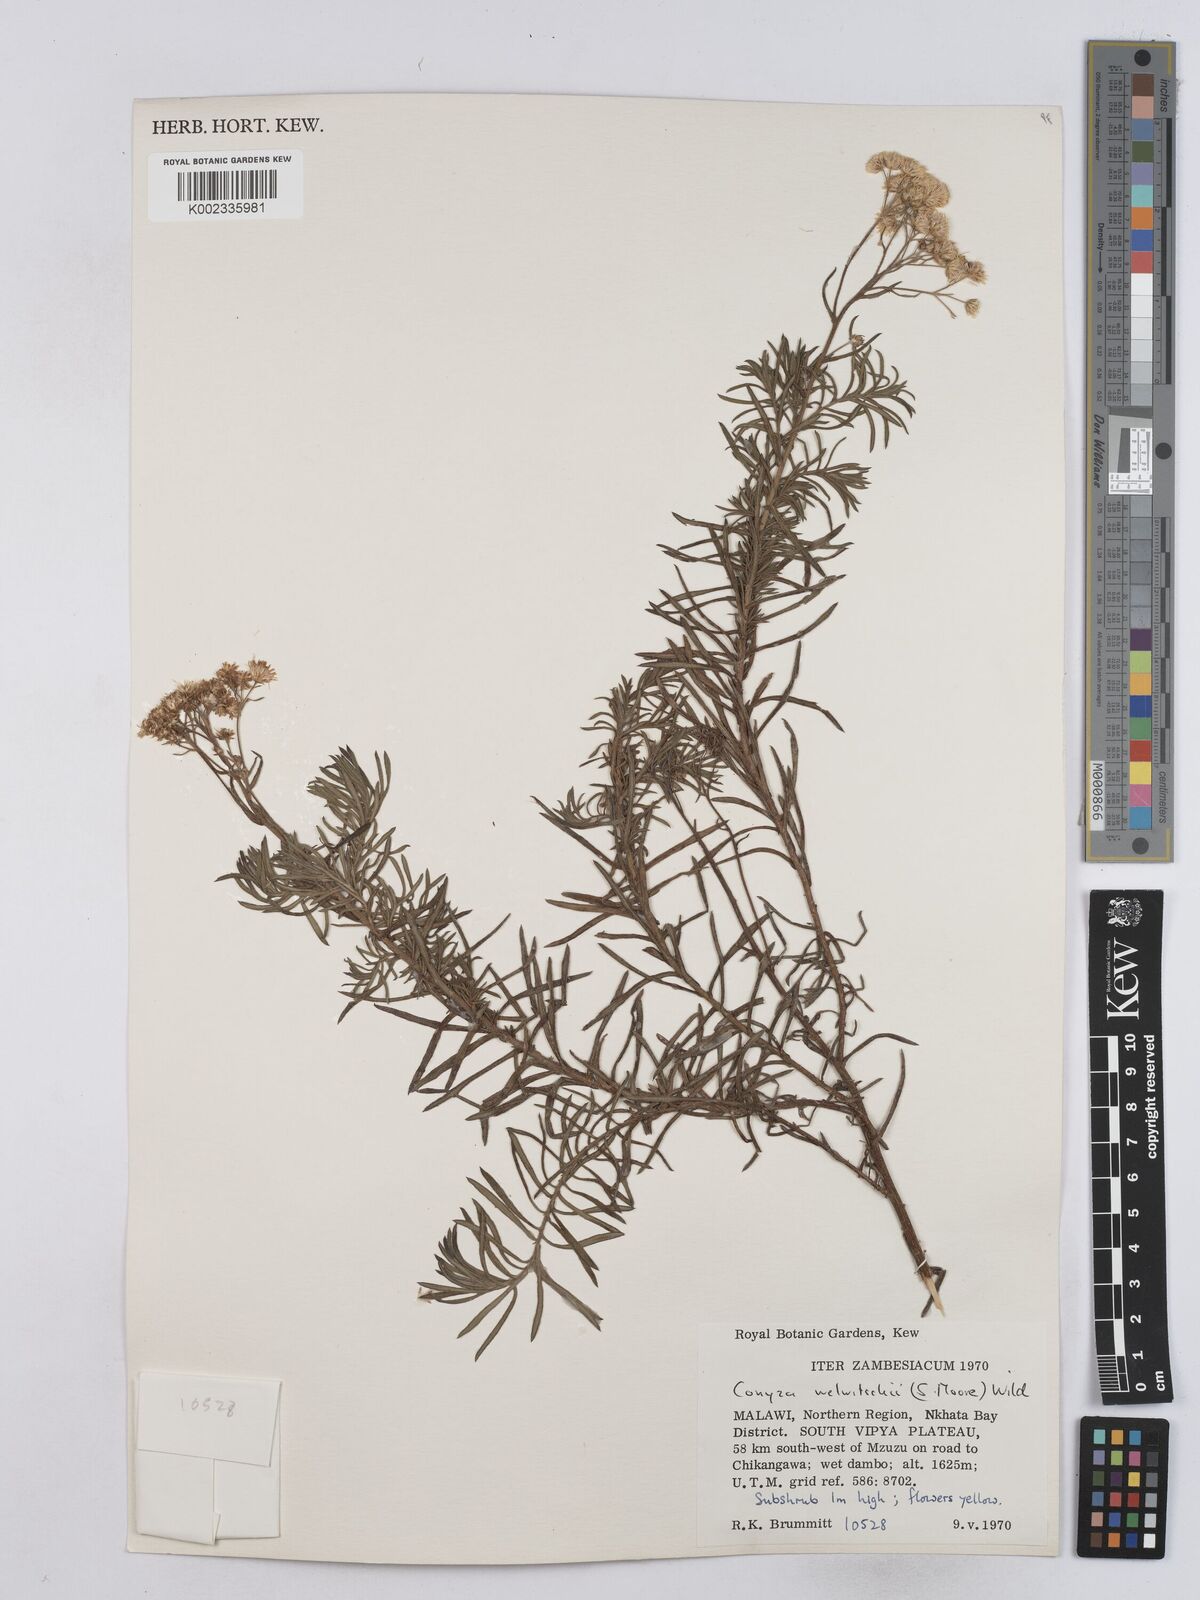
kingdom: Plantae
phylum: Tracheophyta
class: Magnoliopsida
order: Asterales
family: Asteraceae
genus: Nidorella
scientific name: Nidorella welwitschii
